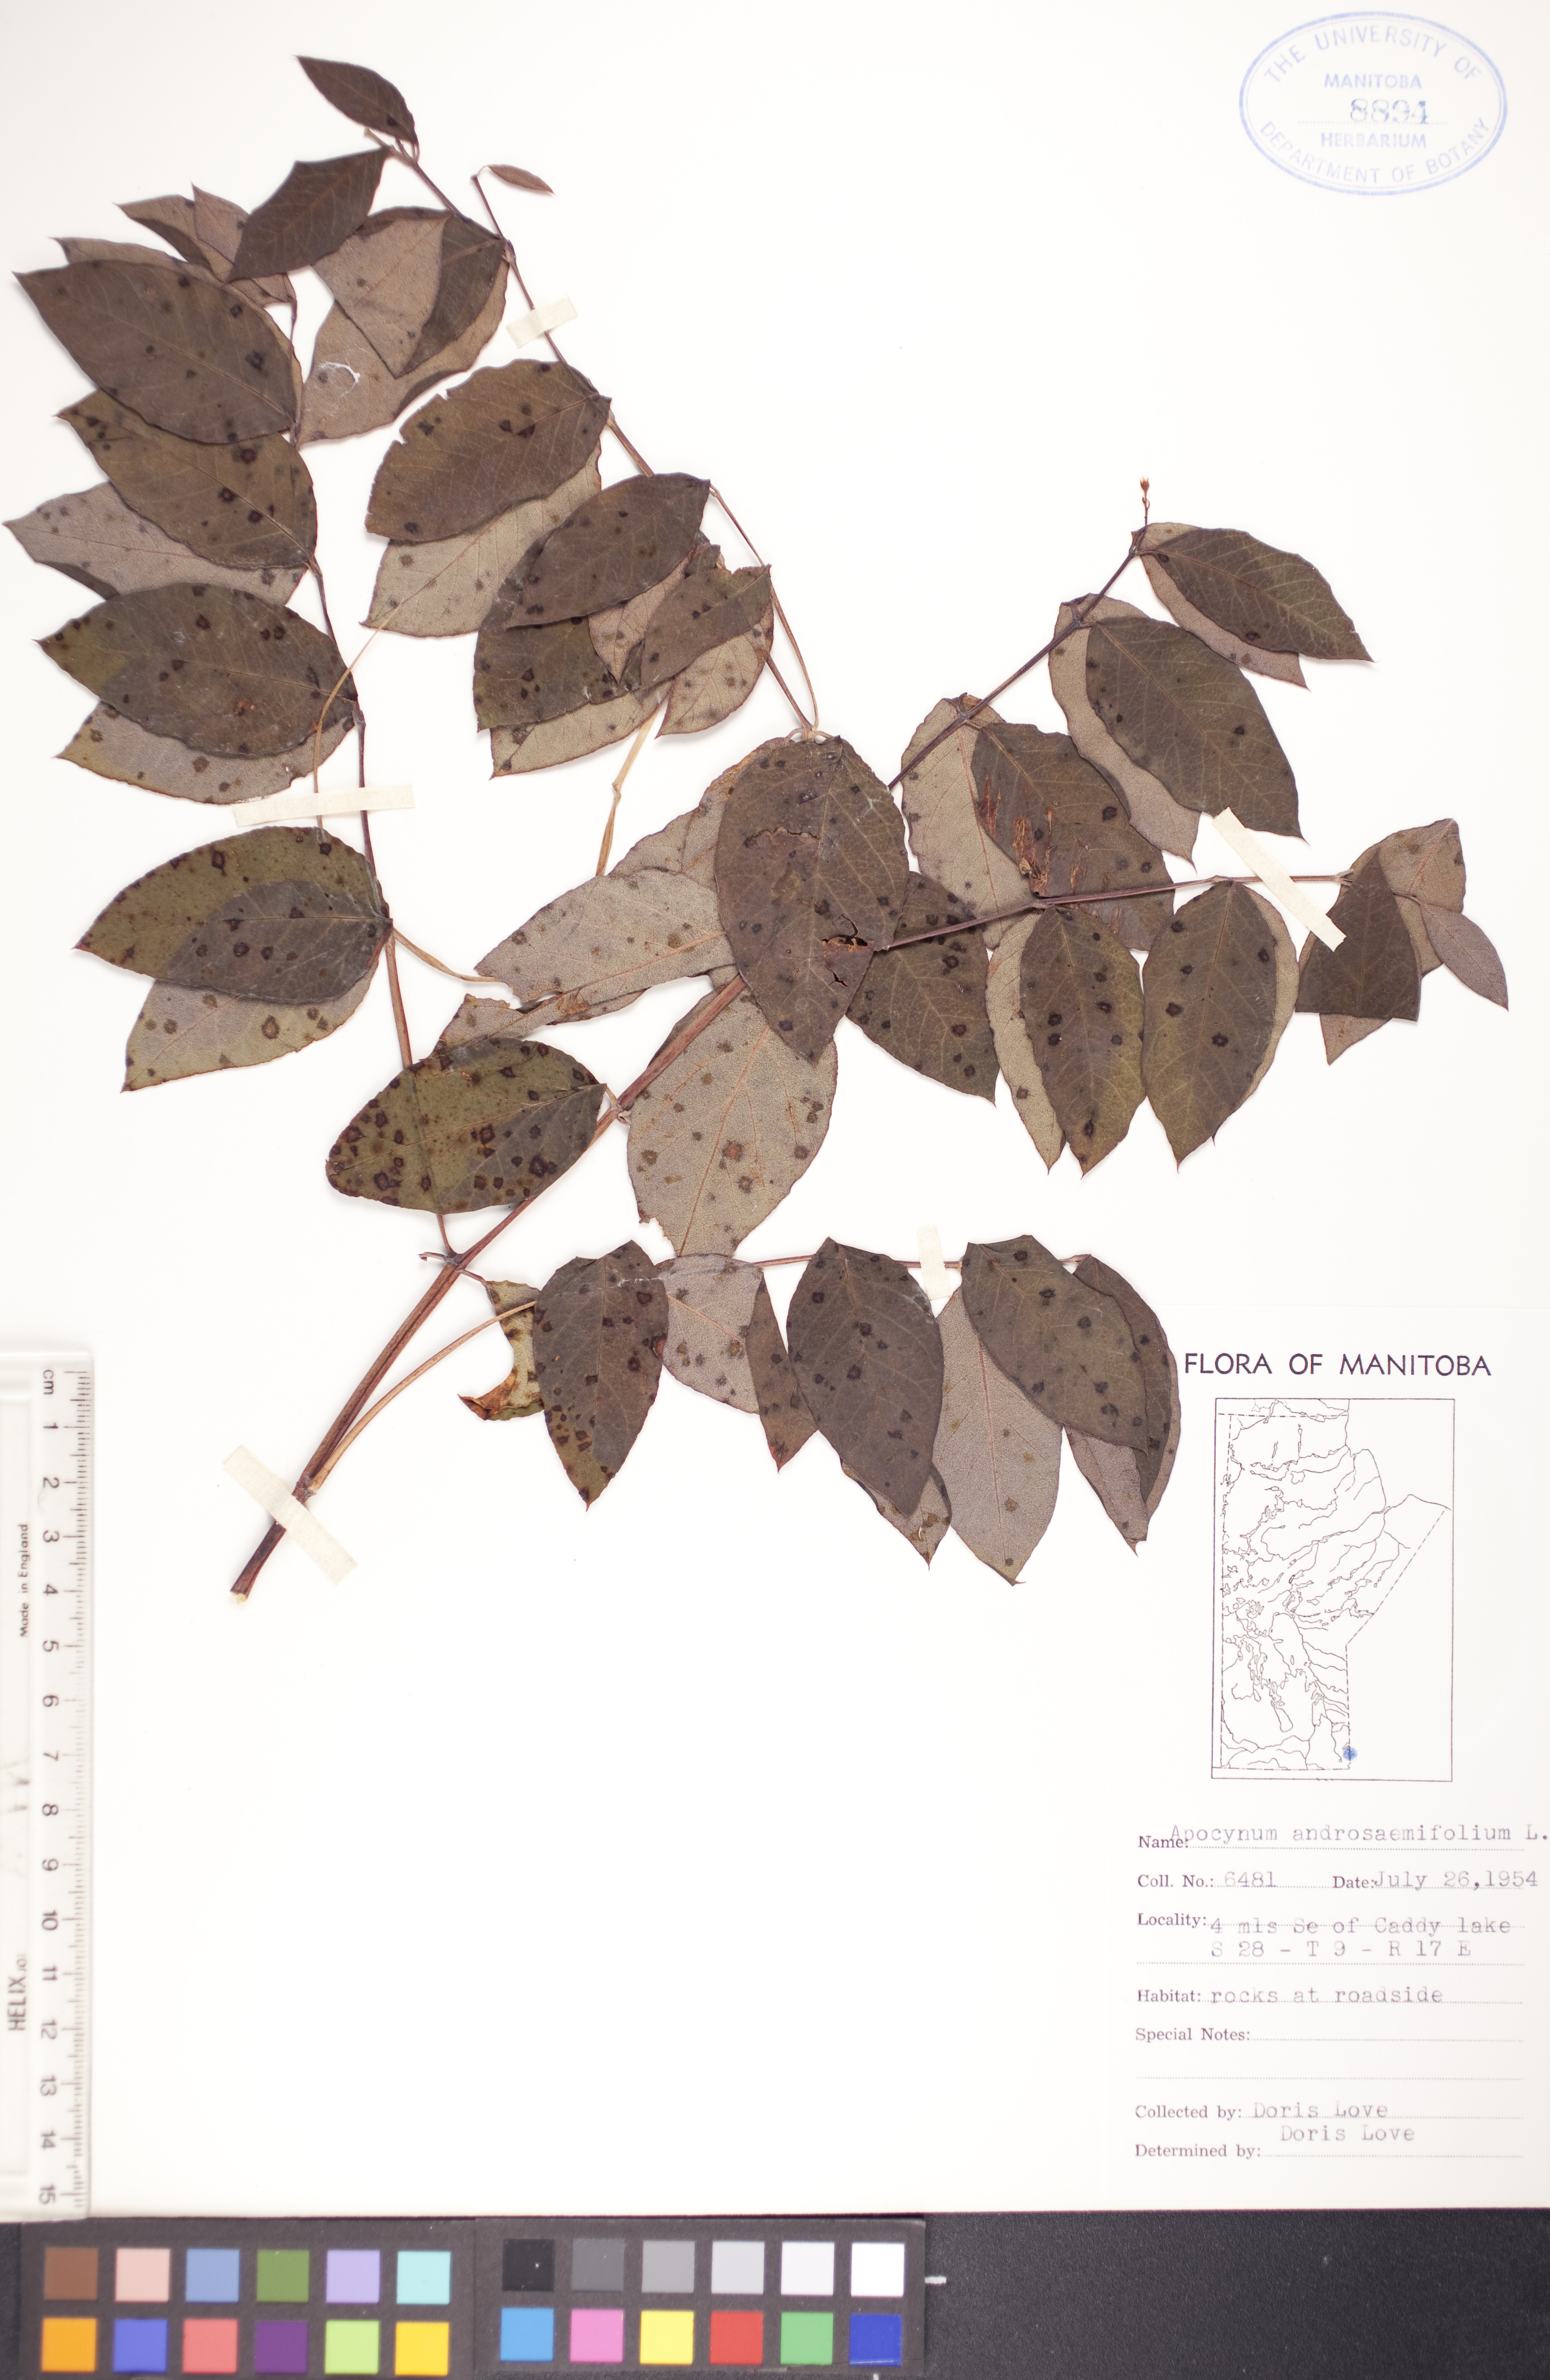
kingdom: Plantae
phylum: Tracheophyta
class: Magnoliopsida
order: Gentianales
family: Apocynaceae
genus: Apocynum
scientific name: Apocynum androsaemifolium
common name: Spreading dogbane
